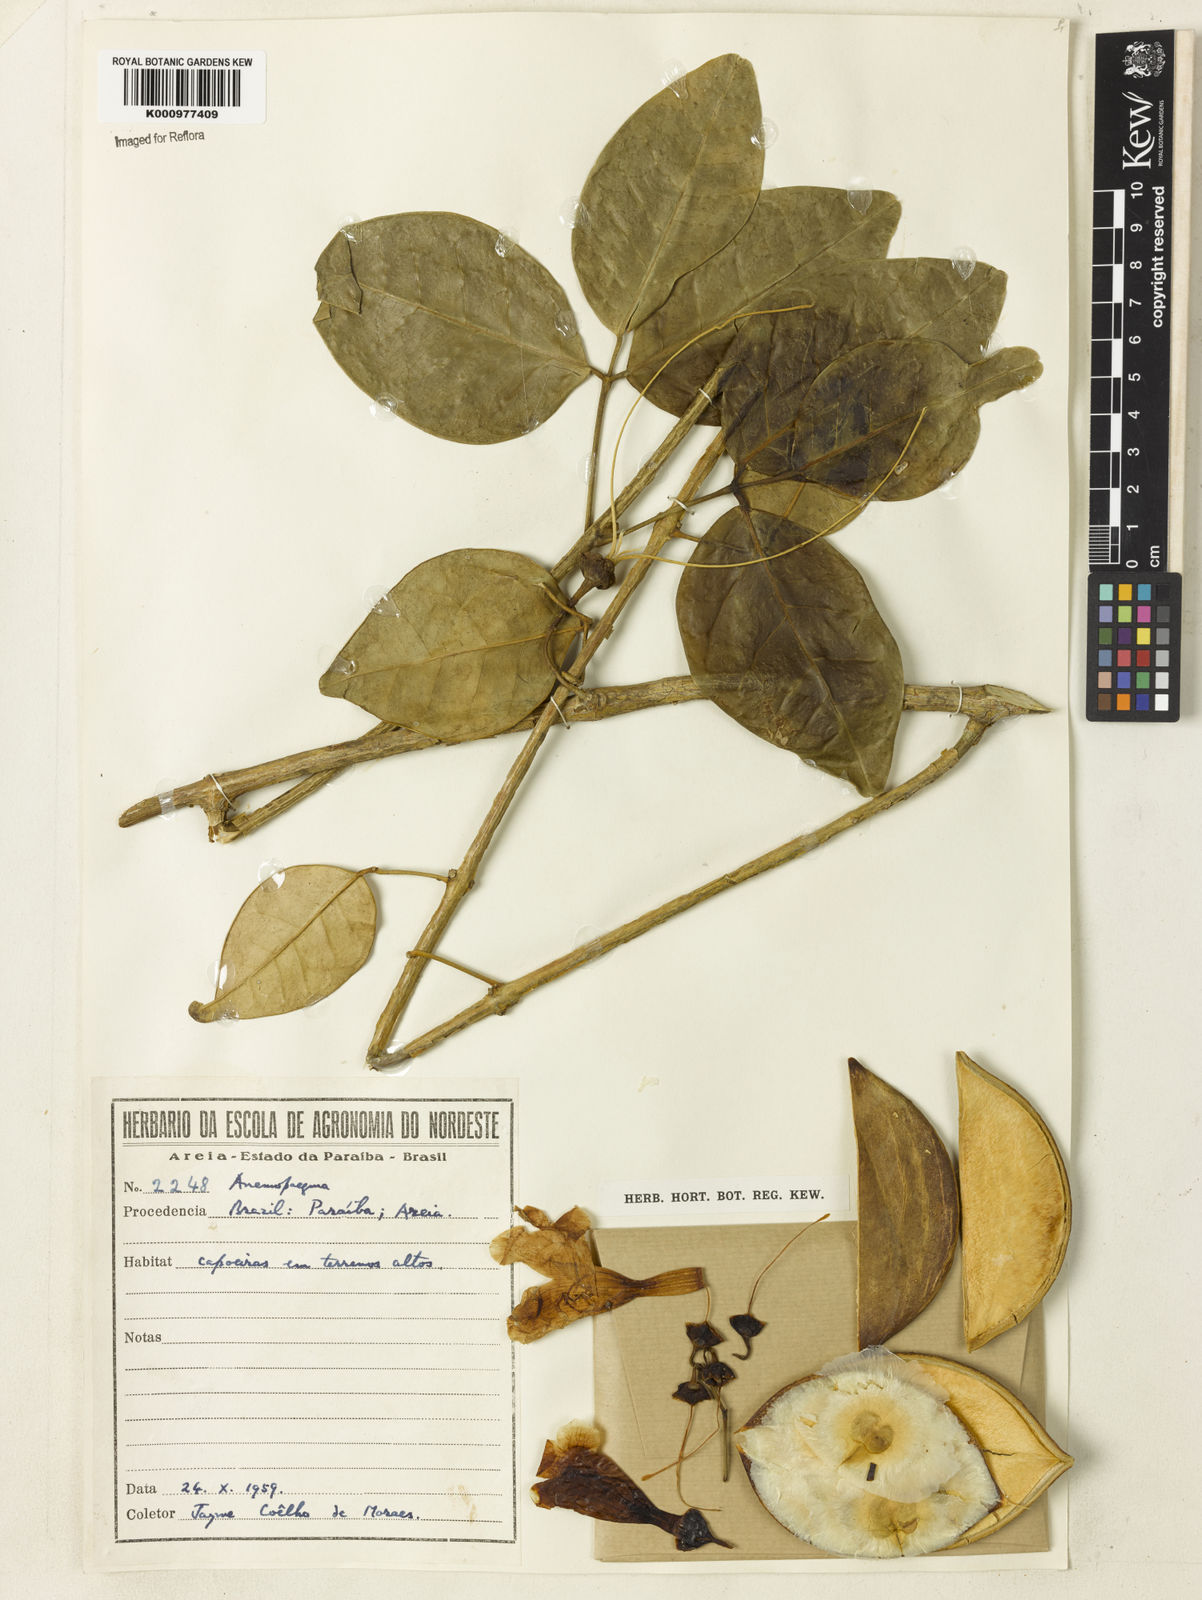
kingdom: Plantae
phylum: Tracheophyta
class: Magnoliopsida
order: Lamiales
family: Bignoniaceae
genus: Anemopaegma
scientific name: Anemopaegma
